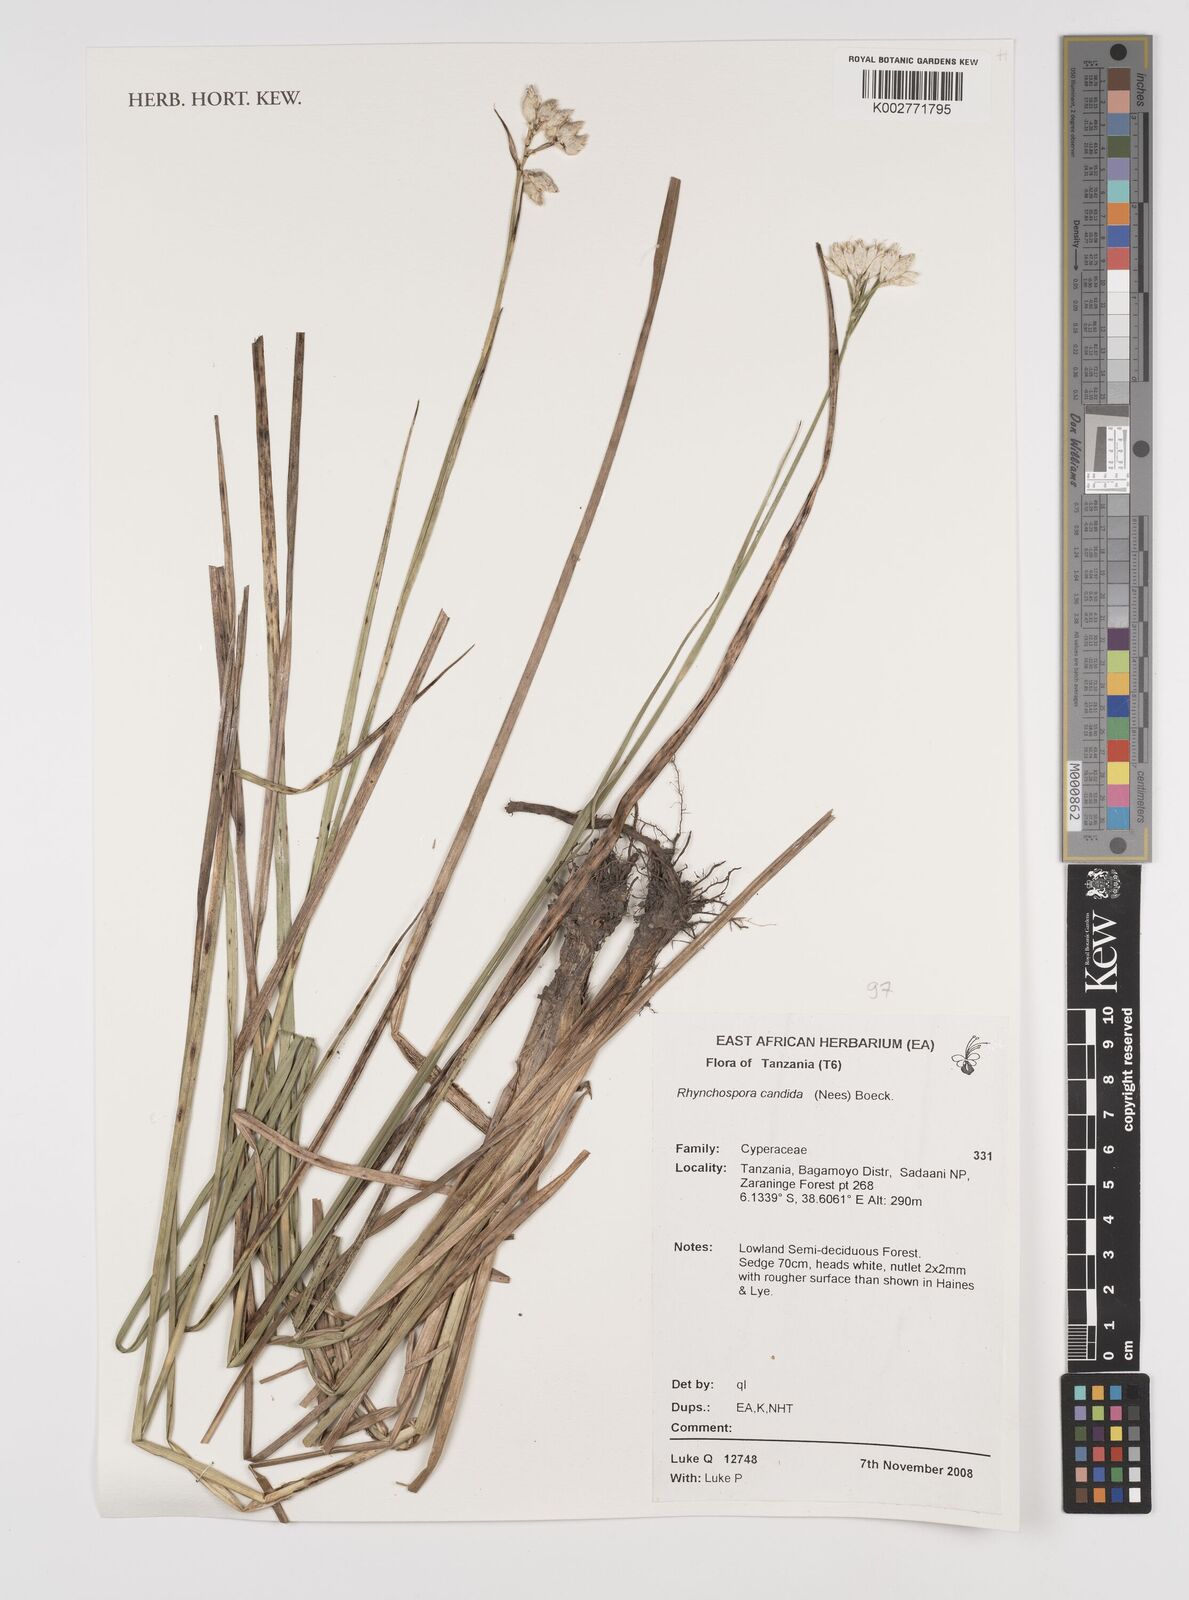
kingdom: Plantae
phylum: Tracheophyta
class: Liliopsida
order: Poales
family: Cyperaceae
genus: Rhynchospora
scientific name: Rhynchospora candida
